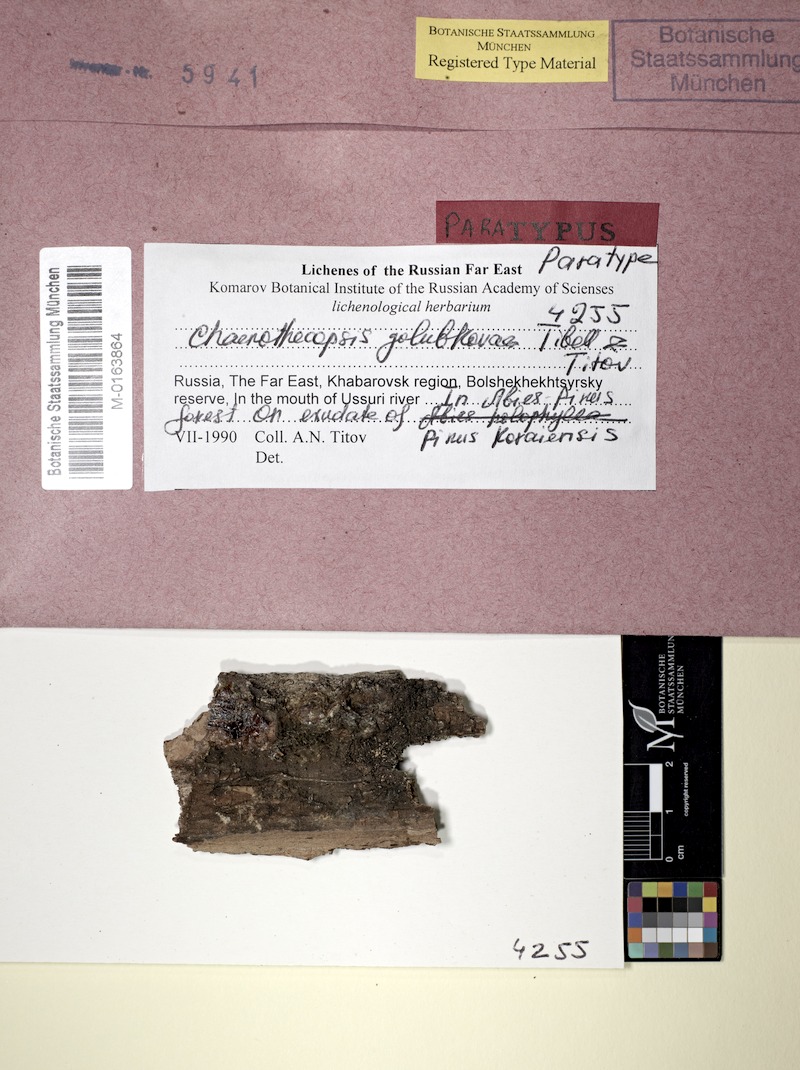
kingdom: Fungi
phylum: Ascomycota
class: Eurotiomycetes
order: Mycocaliciales
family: Mycocaliciaceae
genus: Chaenothecopsis
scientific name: Chaenothecopsis golubkovae
